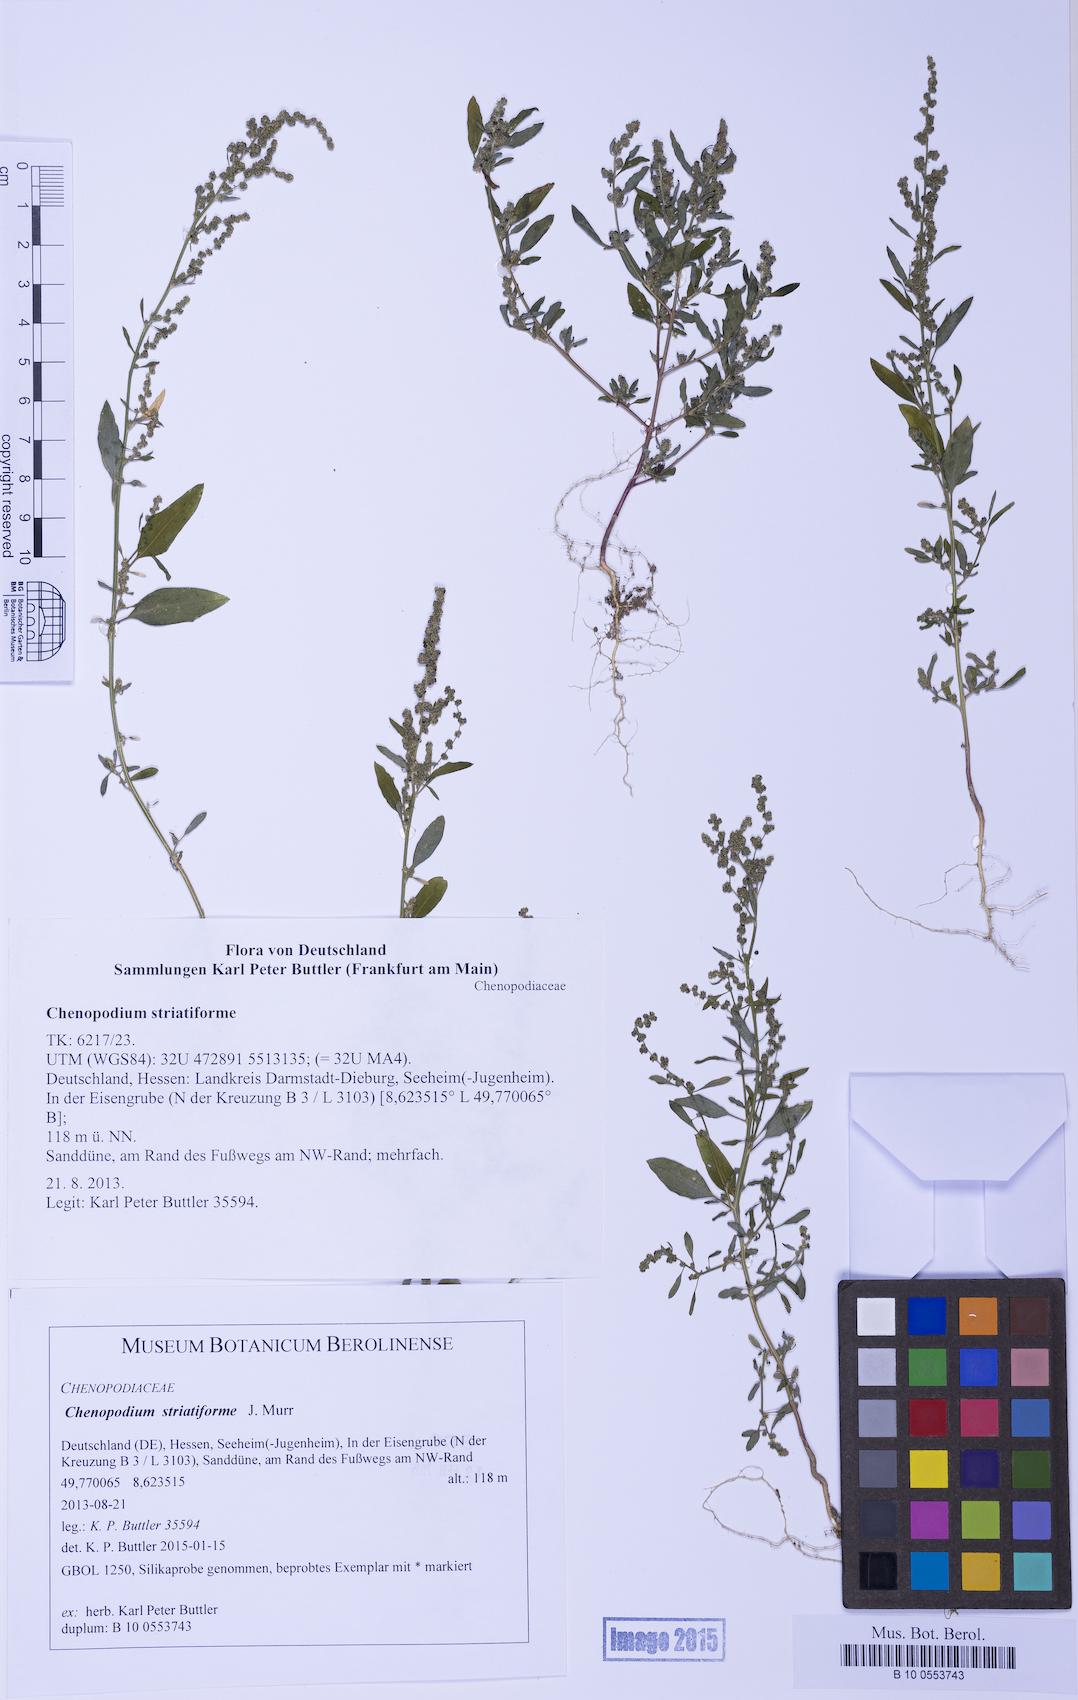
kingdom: Plantae
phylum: Tracheophyta
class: Magnoliopsida
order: Caryophyllales
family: Amaranthaceae
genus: Chenopodium
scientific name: Chenopodium striatiforme
